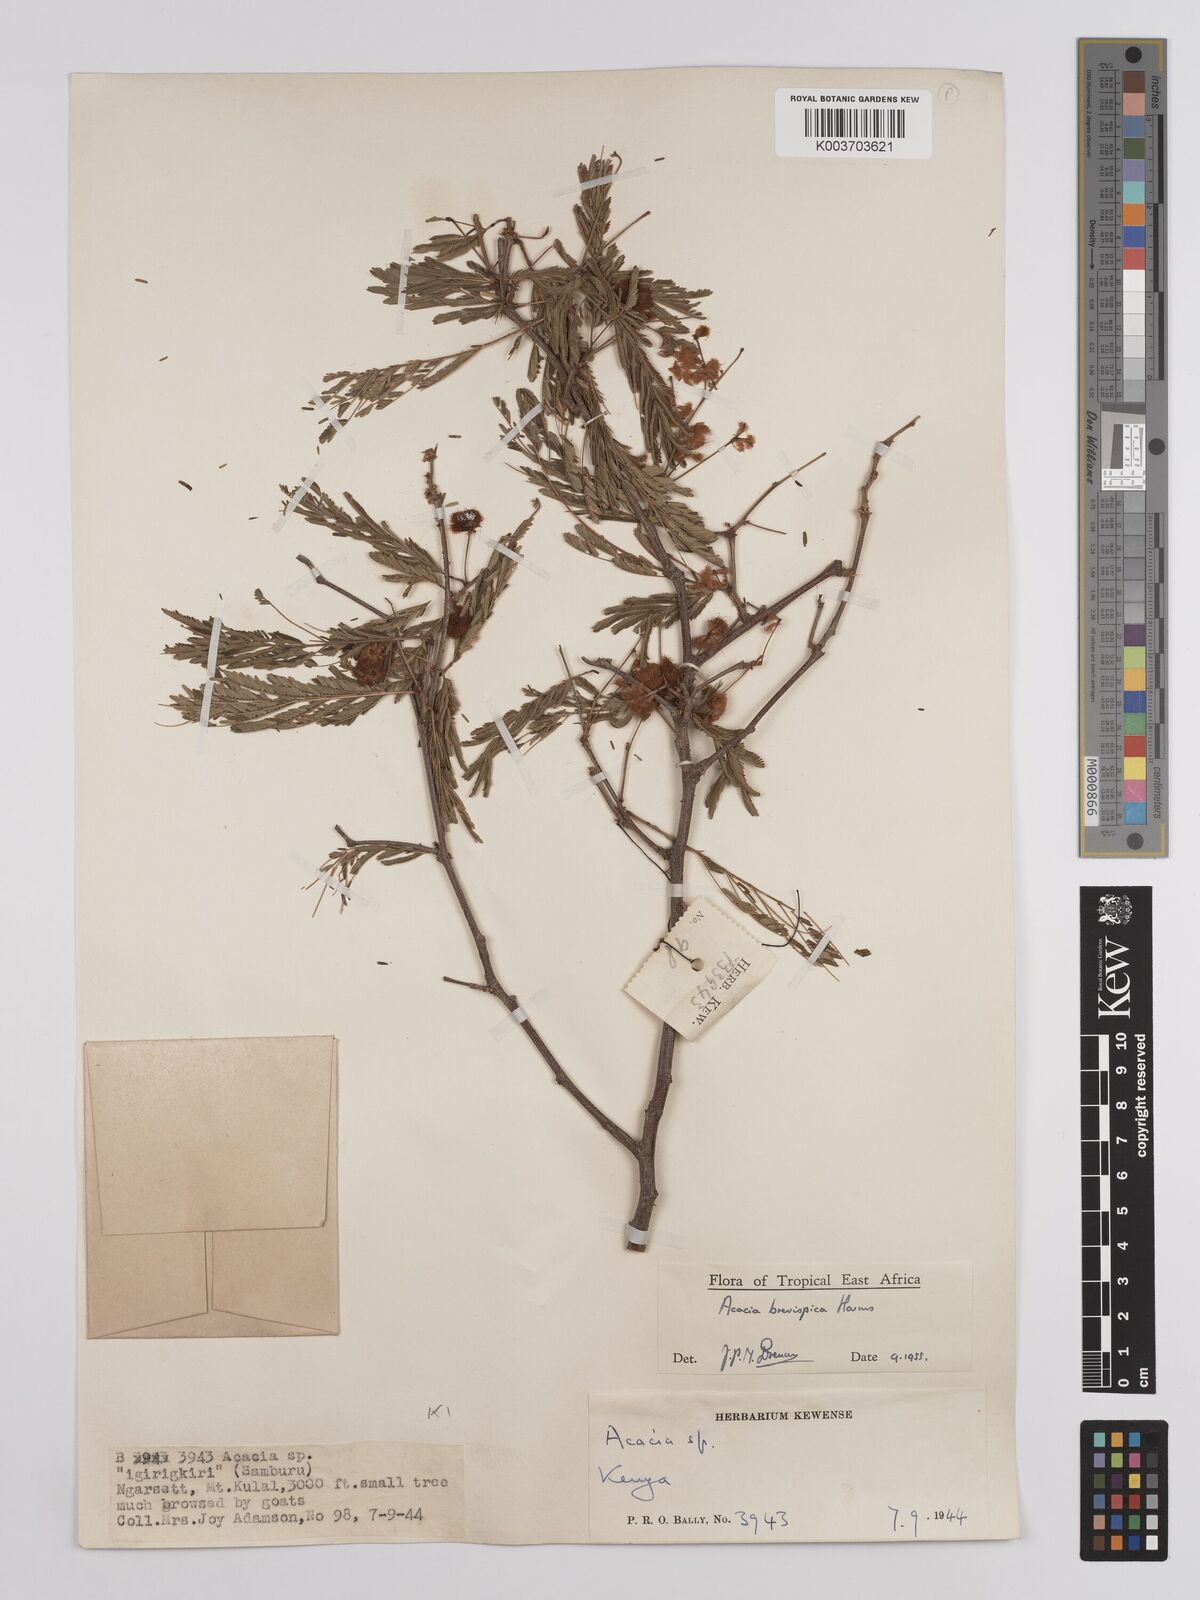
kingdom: Plantae
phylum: Tracheophyta
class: Magnoliopsida
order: Fabales
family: Fabaceae
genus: Senegalia
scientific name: Senegalia brevispica
